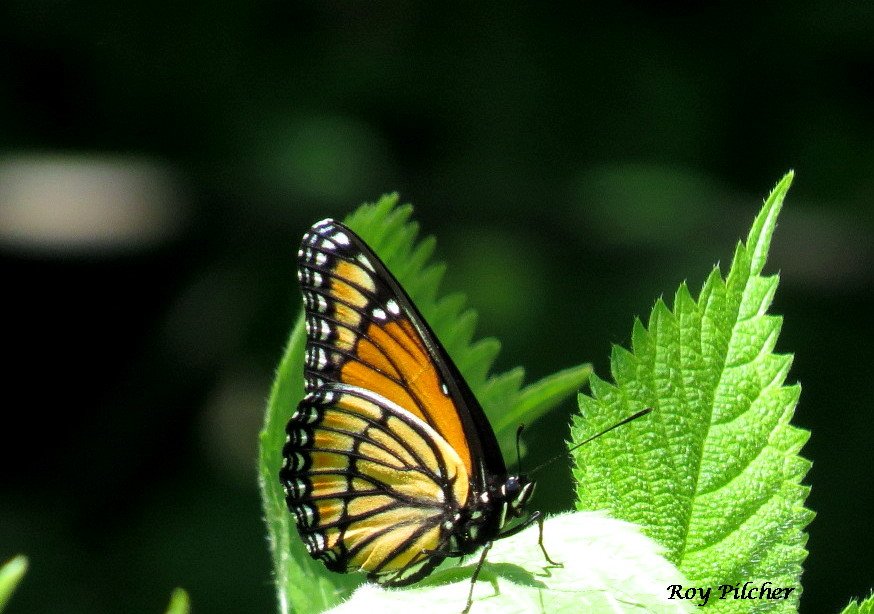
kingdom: Animalia
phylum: Arthropoda
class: Insecta
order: Lepidoptera
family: Nymphalidae
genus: Limenitis
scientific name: Limenitis archippus
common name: Viceroy
